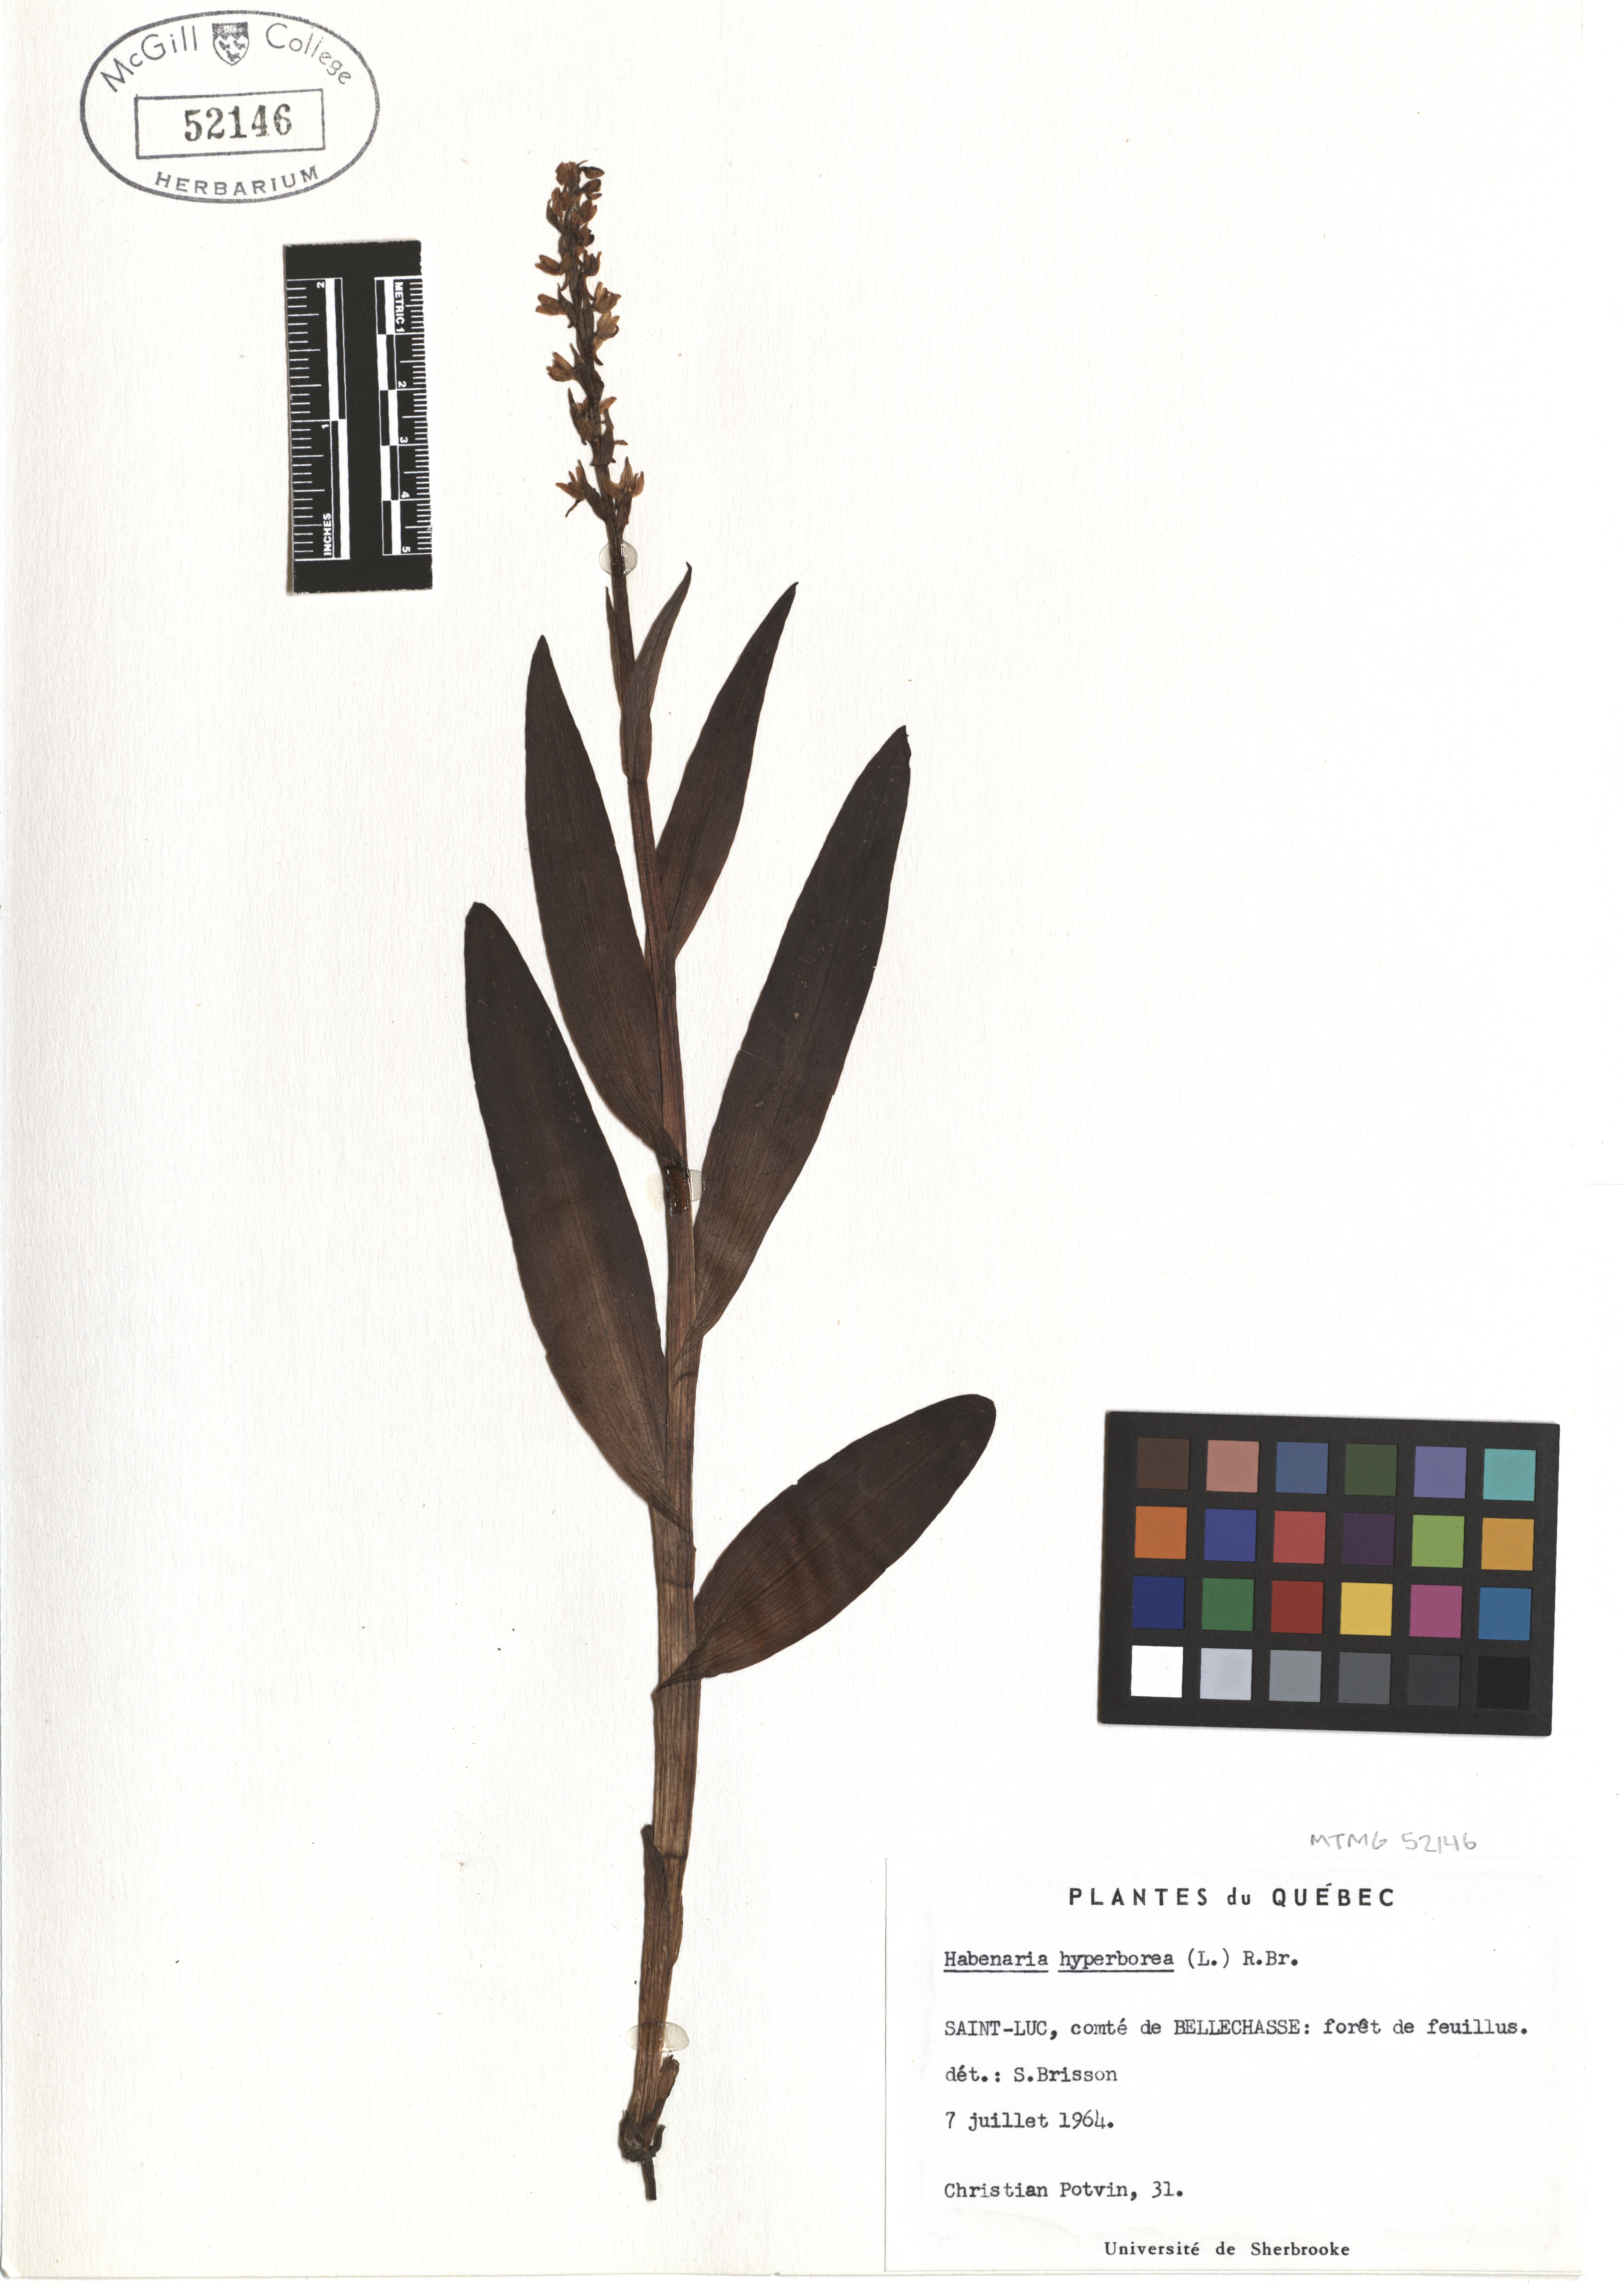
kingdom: Plantae
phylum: Tracheophyta
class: Liliopsida
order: Asparagales
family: Orchidaceae
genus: Platanthera
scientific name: Platanthera hyperborea
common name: Northern green orchid
